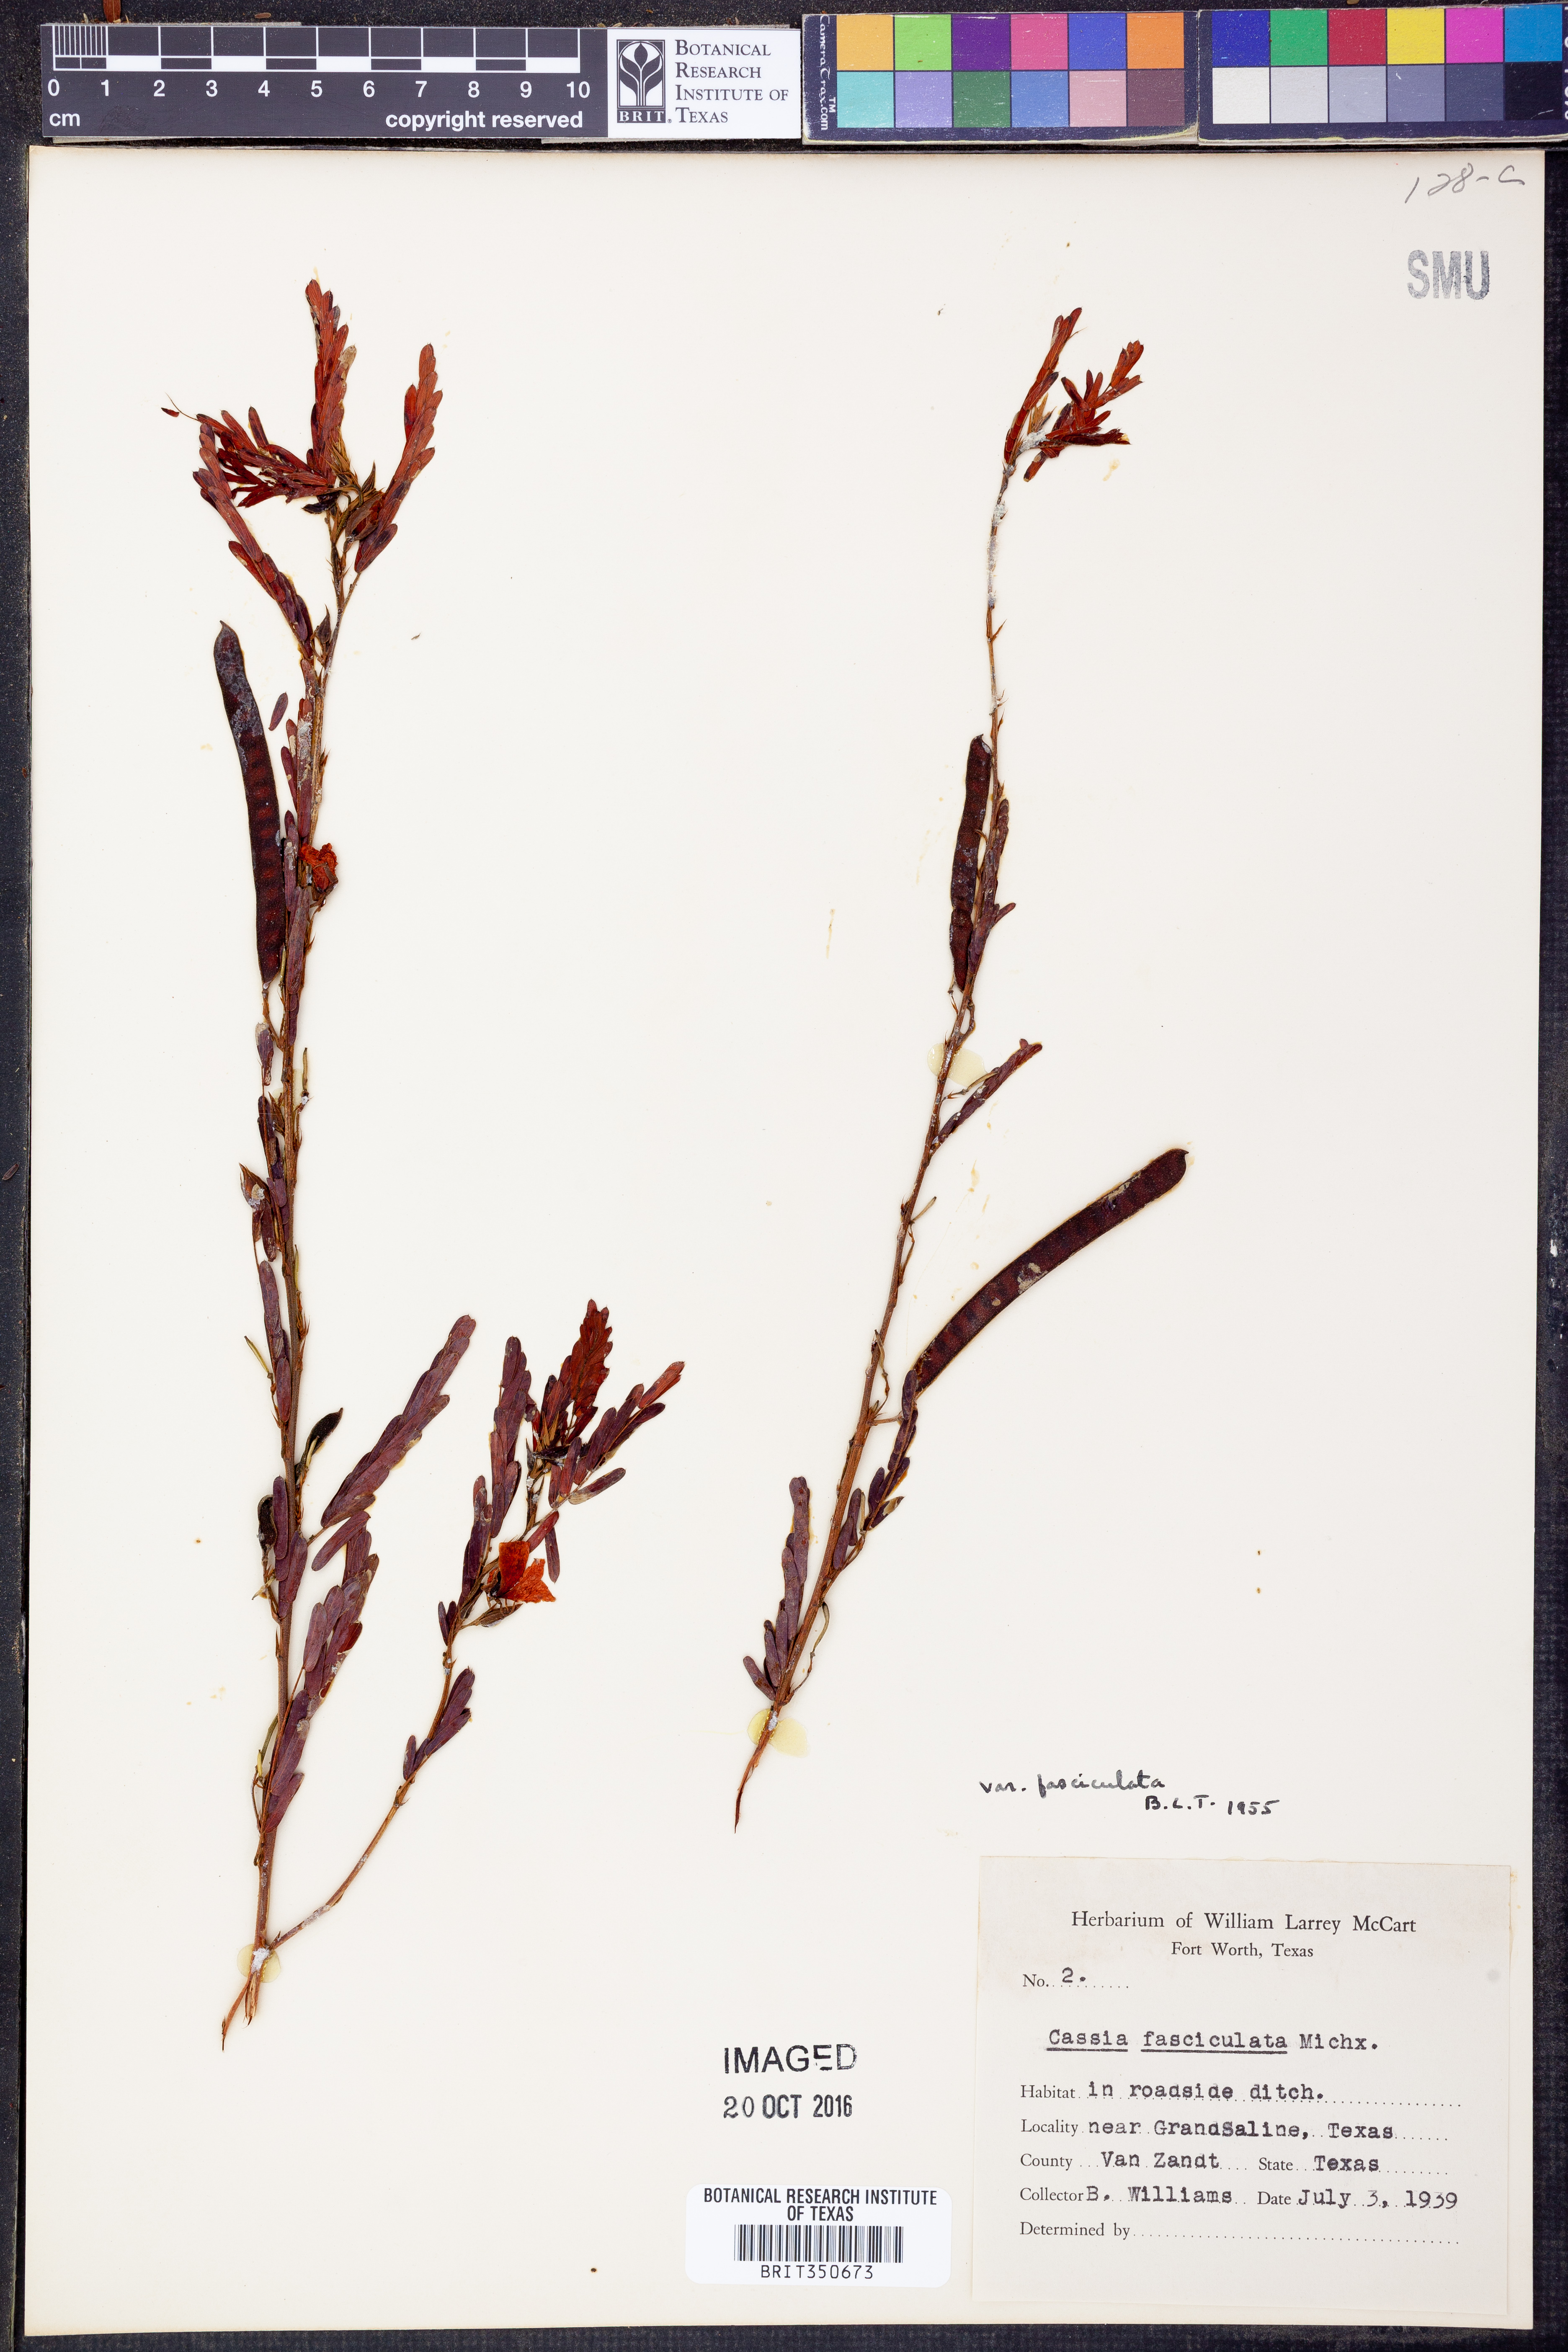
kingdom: Plantae
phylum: Tracheophyta
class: Magnoliopsida
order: Fabales
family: Fabaceae
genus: Chamaecrista
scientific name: Chamaecrista fasciculata
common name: Golden cassia
